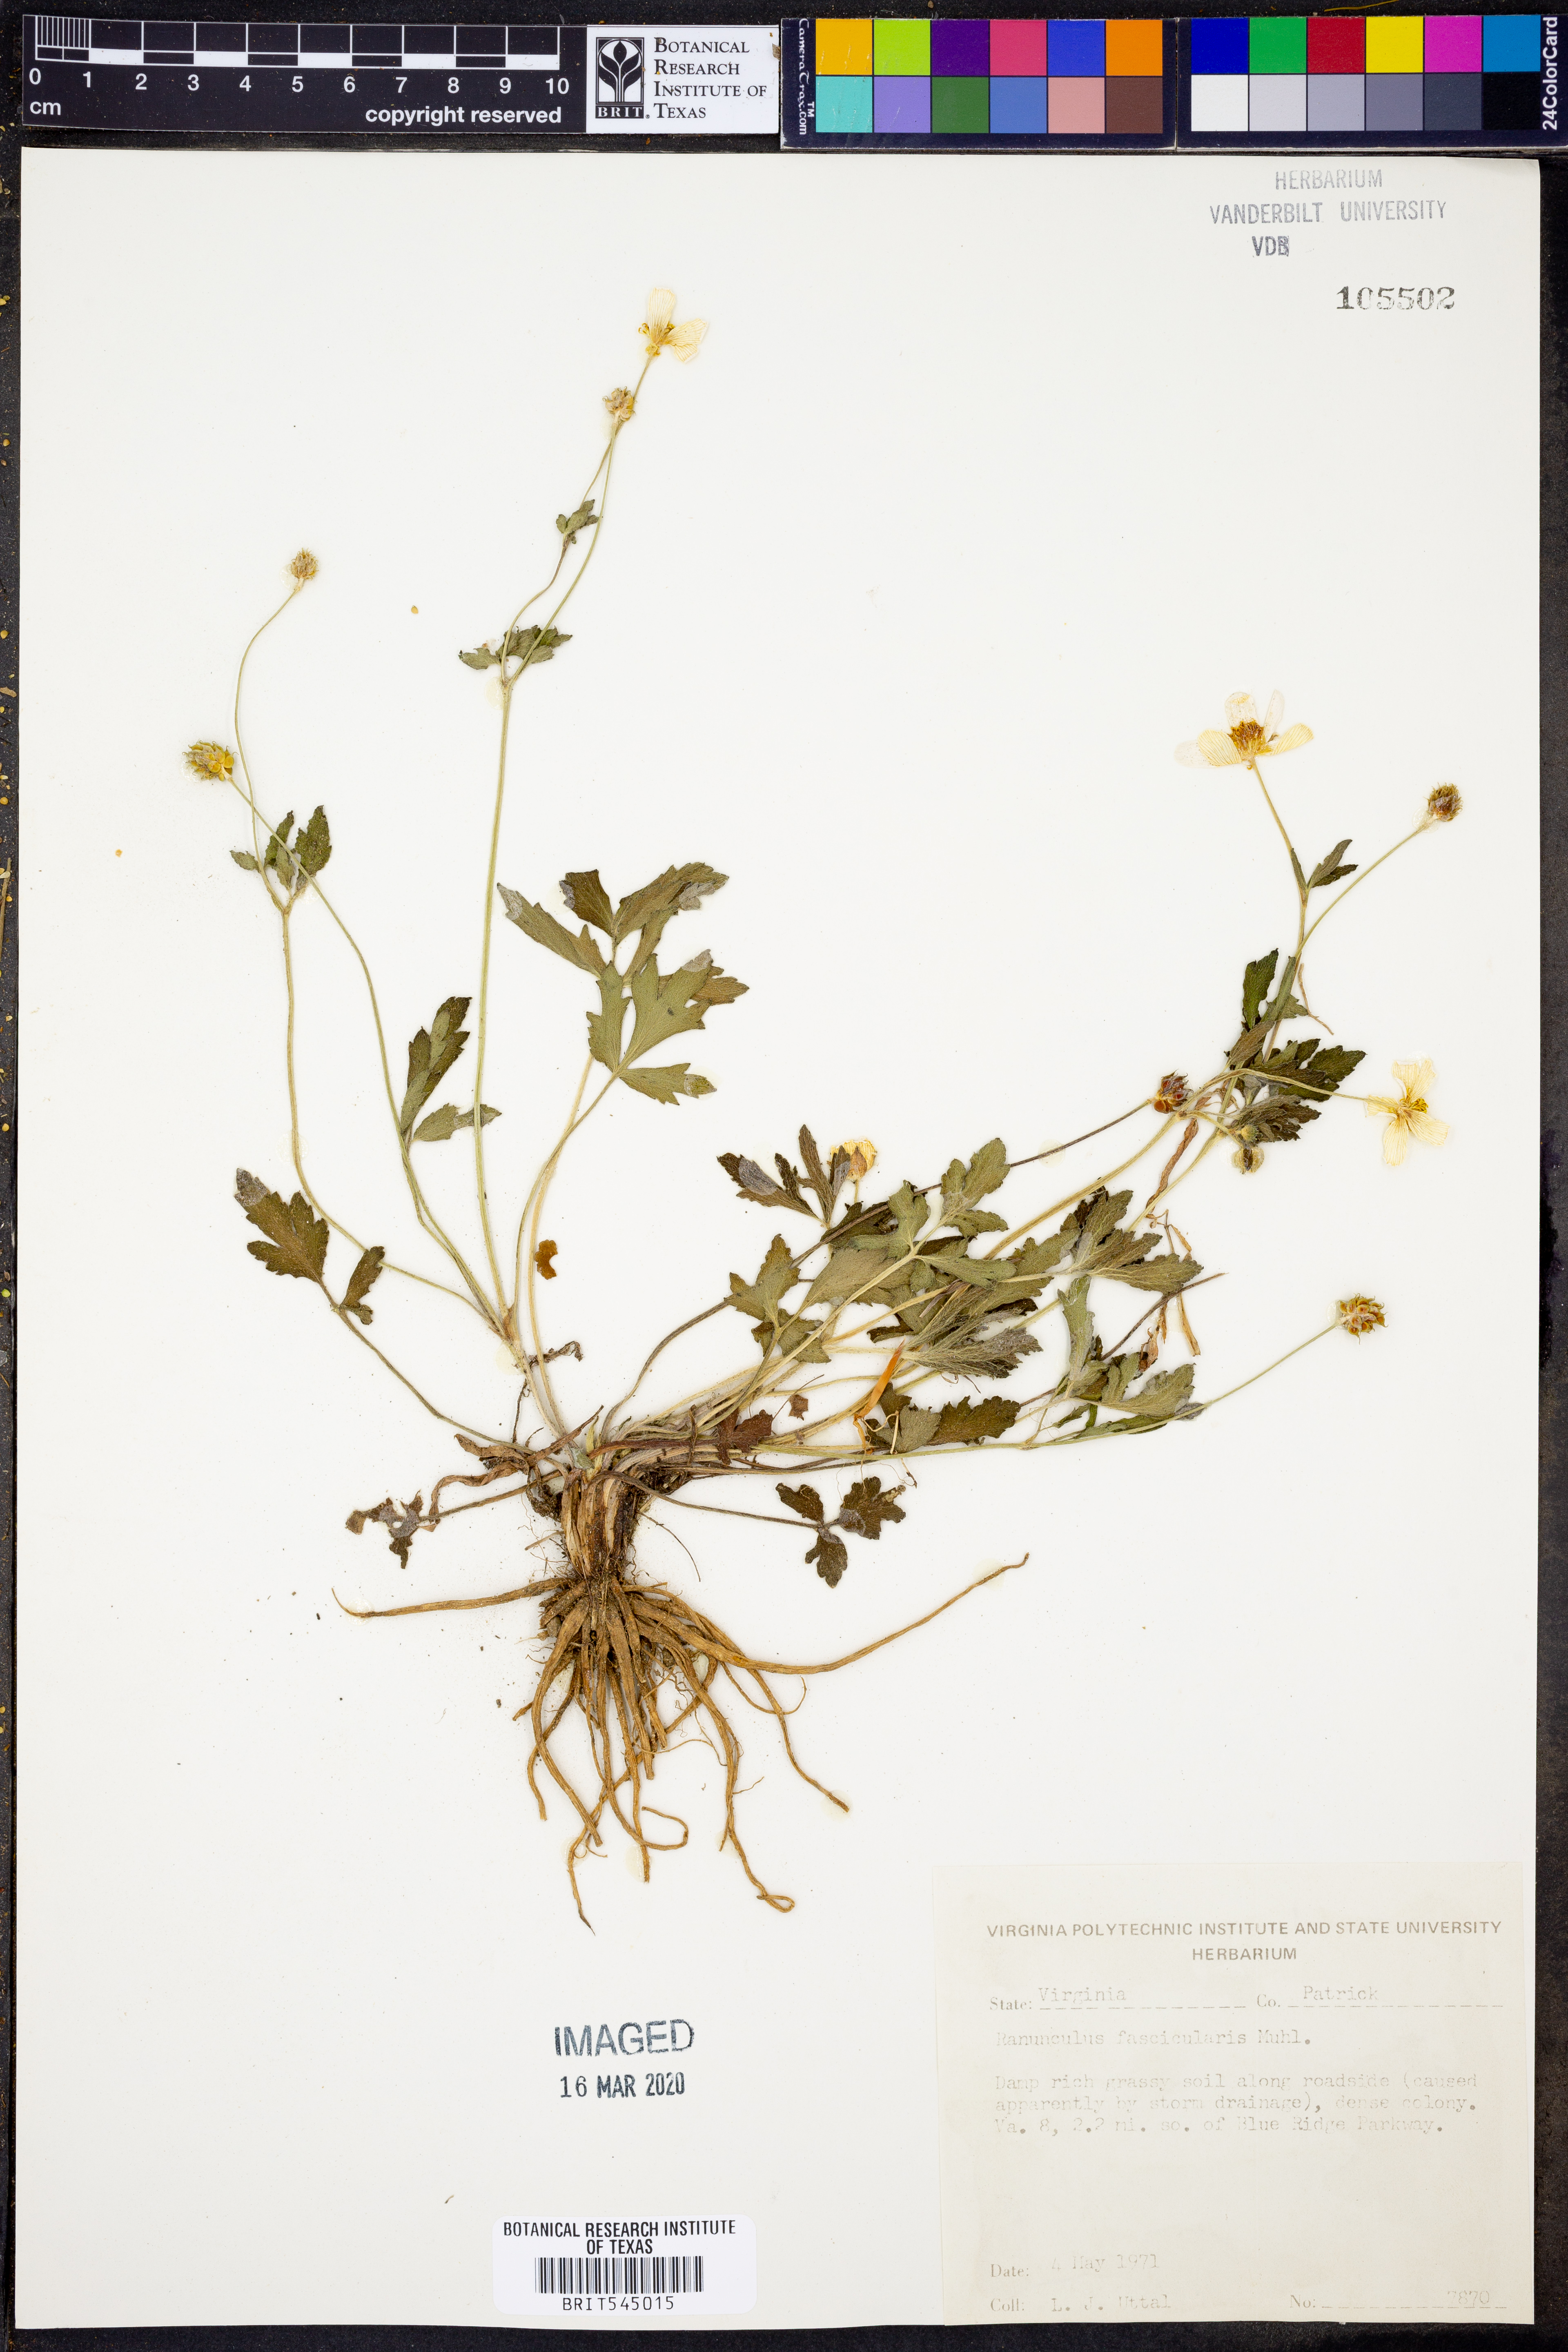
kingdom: Plantae
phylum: Tracheophyta
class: Magnoliopsida
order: Ranunculales
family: Ranunculaceae
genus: Ranunculus
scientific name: Ranunculus fascicularis
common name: Early buttercup
